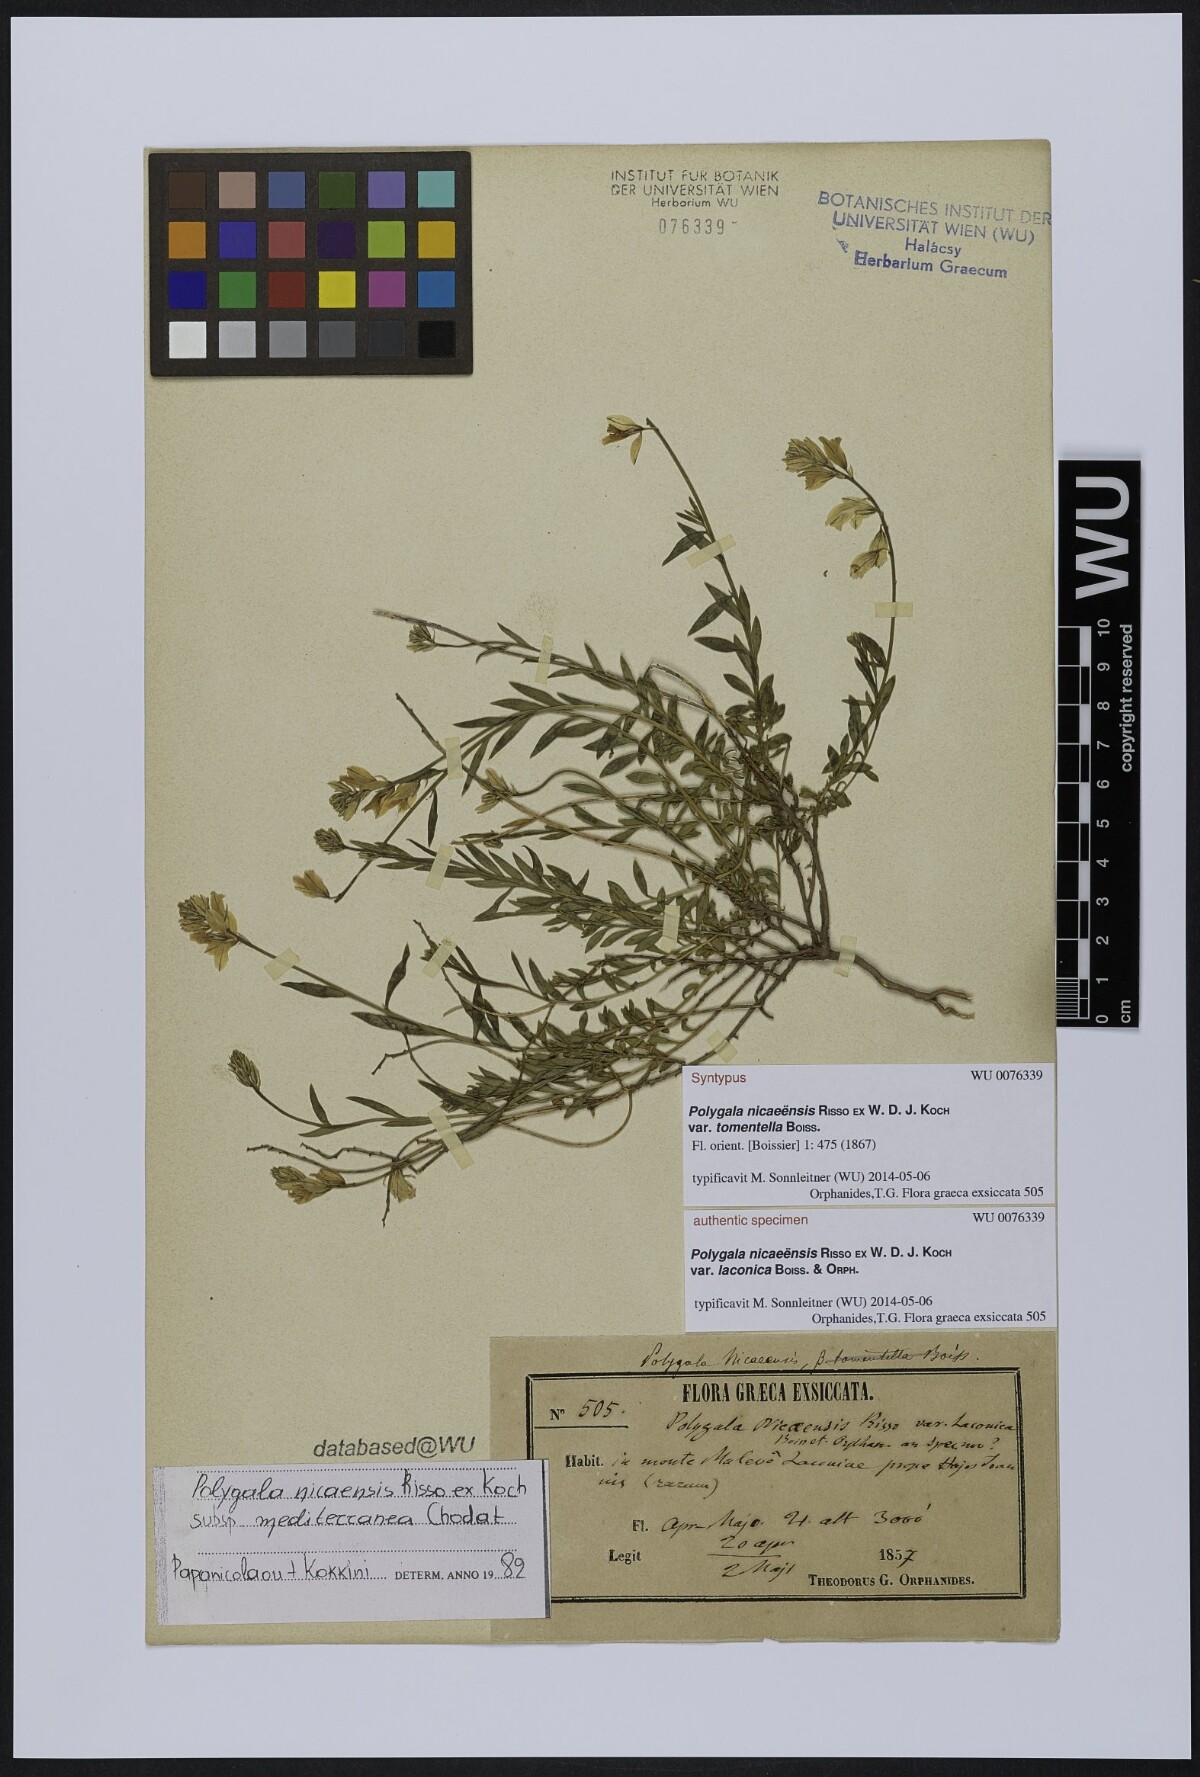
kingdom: Plantae
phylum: Tracheophyta
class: Magnoliopsida
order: Fabales
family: Polygalaceae
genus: Polygala
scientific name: Polygala nicaeensis
